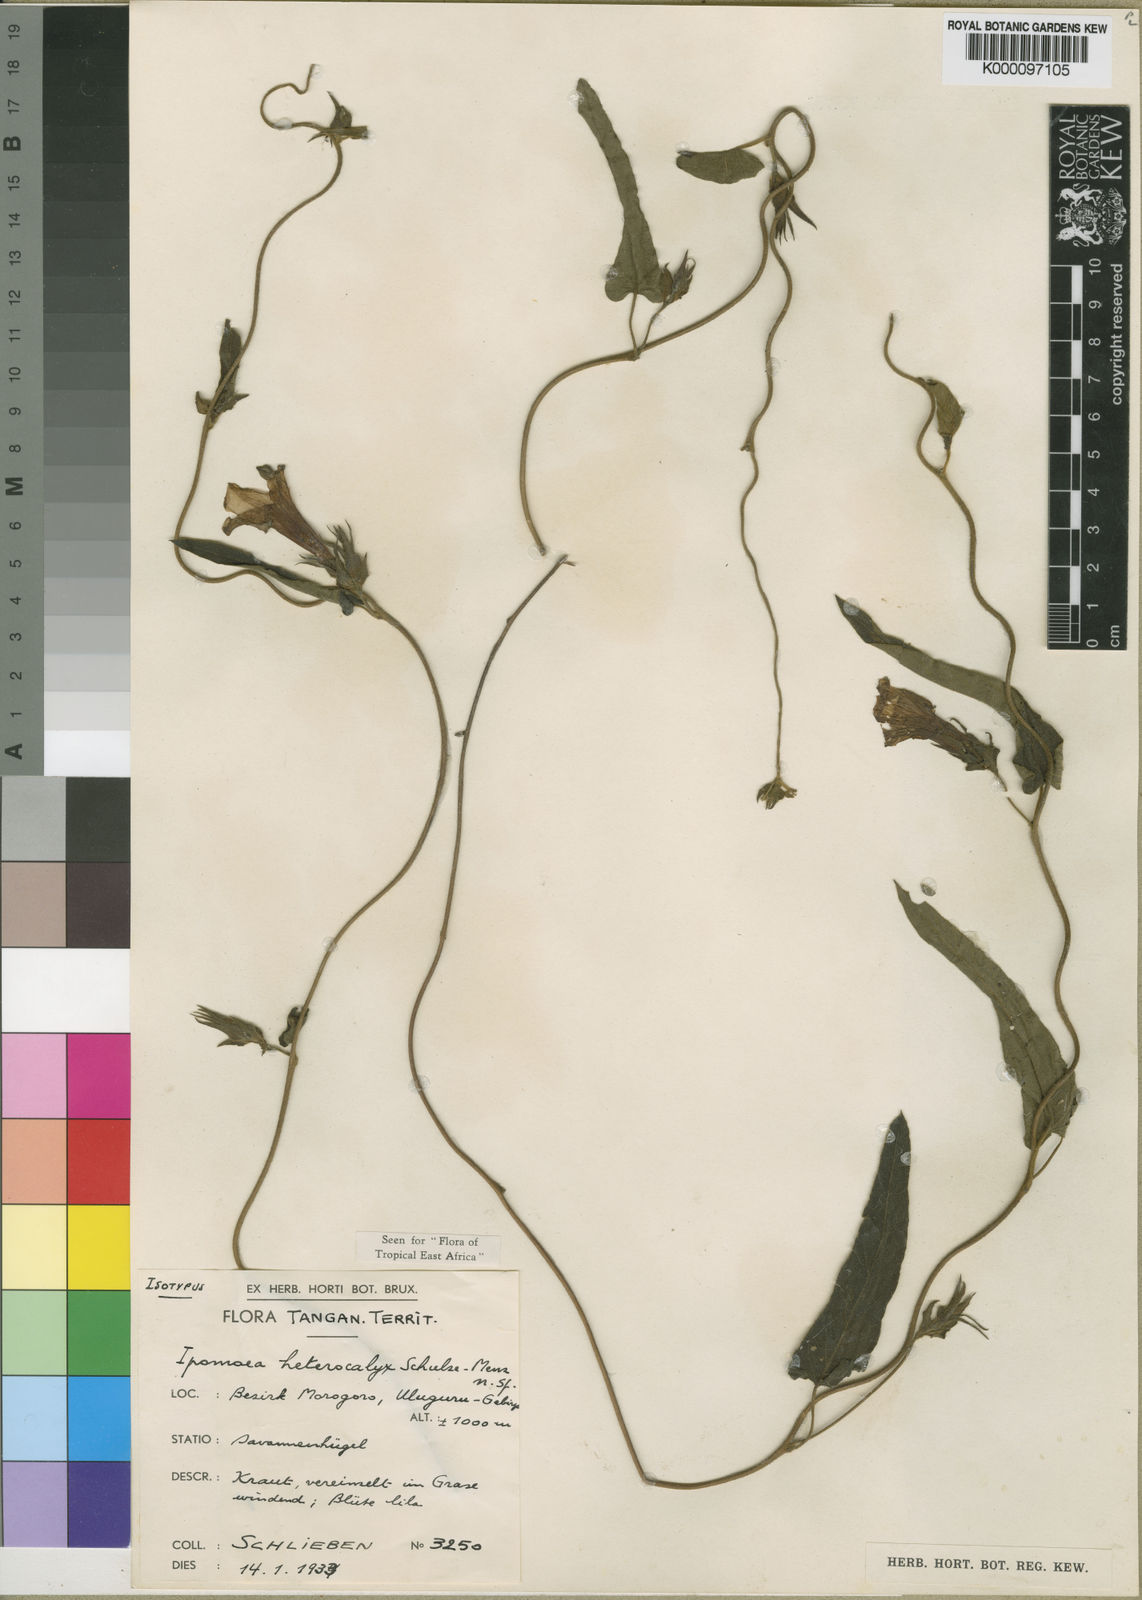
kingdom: Plantae
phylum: Tracheophyta
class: Magnoliopsida
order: Solanales
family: Convolvulaceae
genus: Ipomoea
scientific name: Ipomoea fulvicaulis
